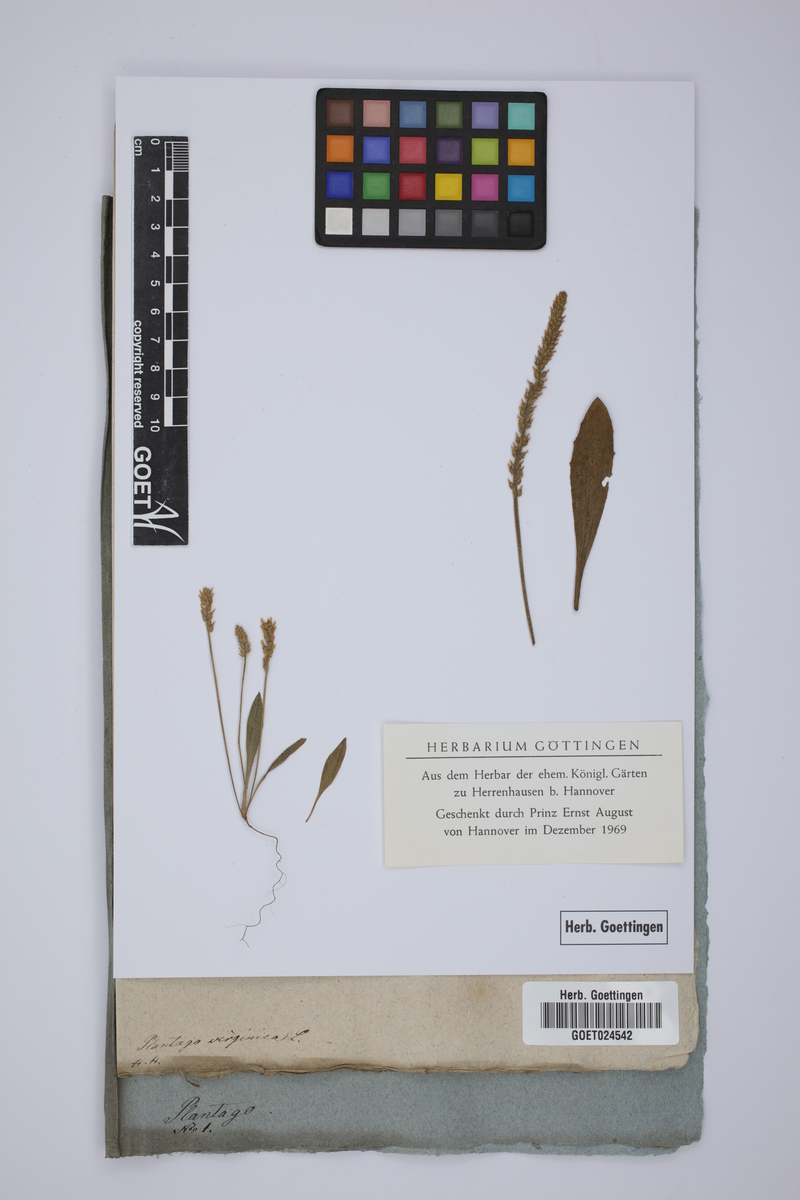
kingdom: Plantae
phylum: Tracheophyta
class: Magnoliopsida
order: Lamiales
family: Plantaginaceae
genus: Plantago
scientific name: Plantago virginica
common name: Hoary plantain
